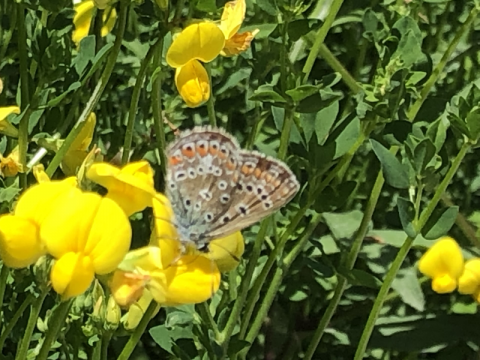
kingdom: Animalia
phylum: Arthropoda
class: Insecta
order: Lepidoptera
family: Lycaenidae
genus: Polyommatus
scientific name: Polyommatus icarus
